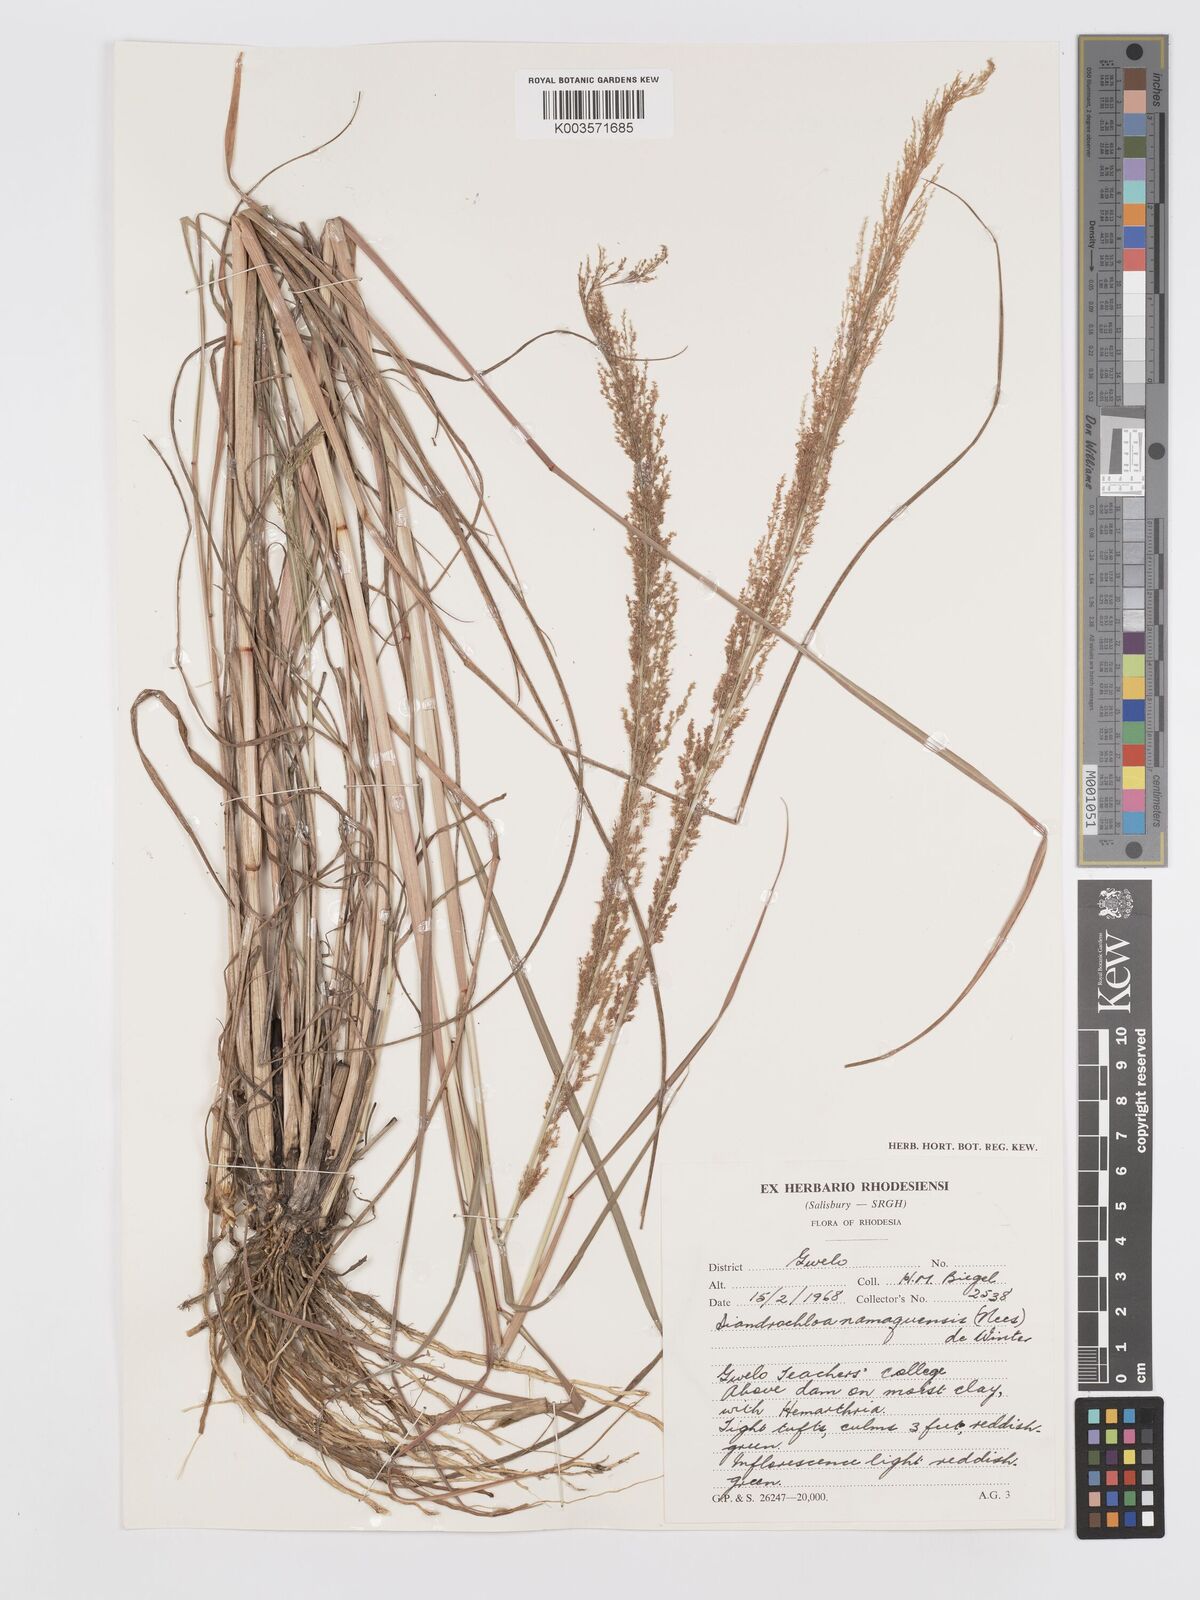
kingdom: Plantae
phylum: Tracheophyta
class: Liliopsida
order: Poales
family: Poaceae
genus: Eragrostis
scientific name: Eragrostis japonica
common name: Pond lovegrass
